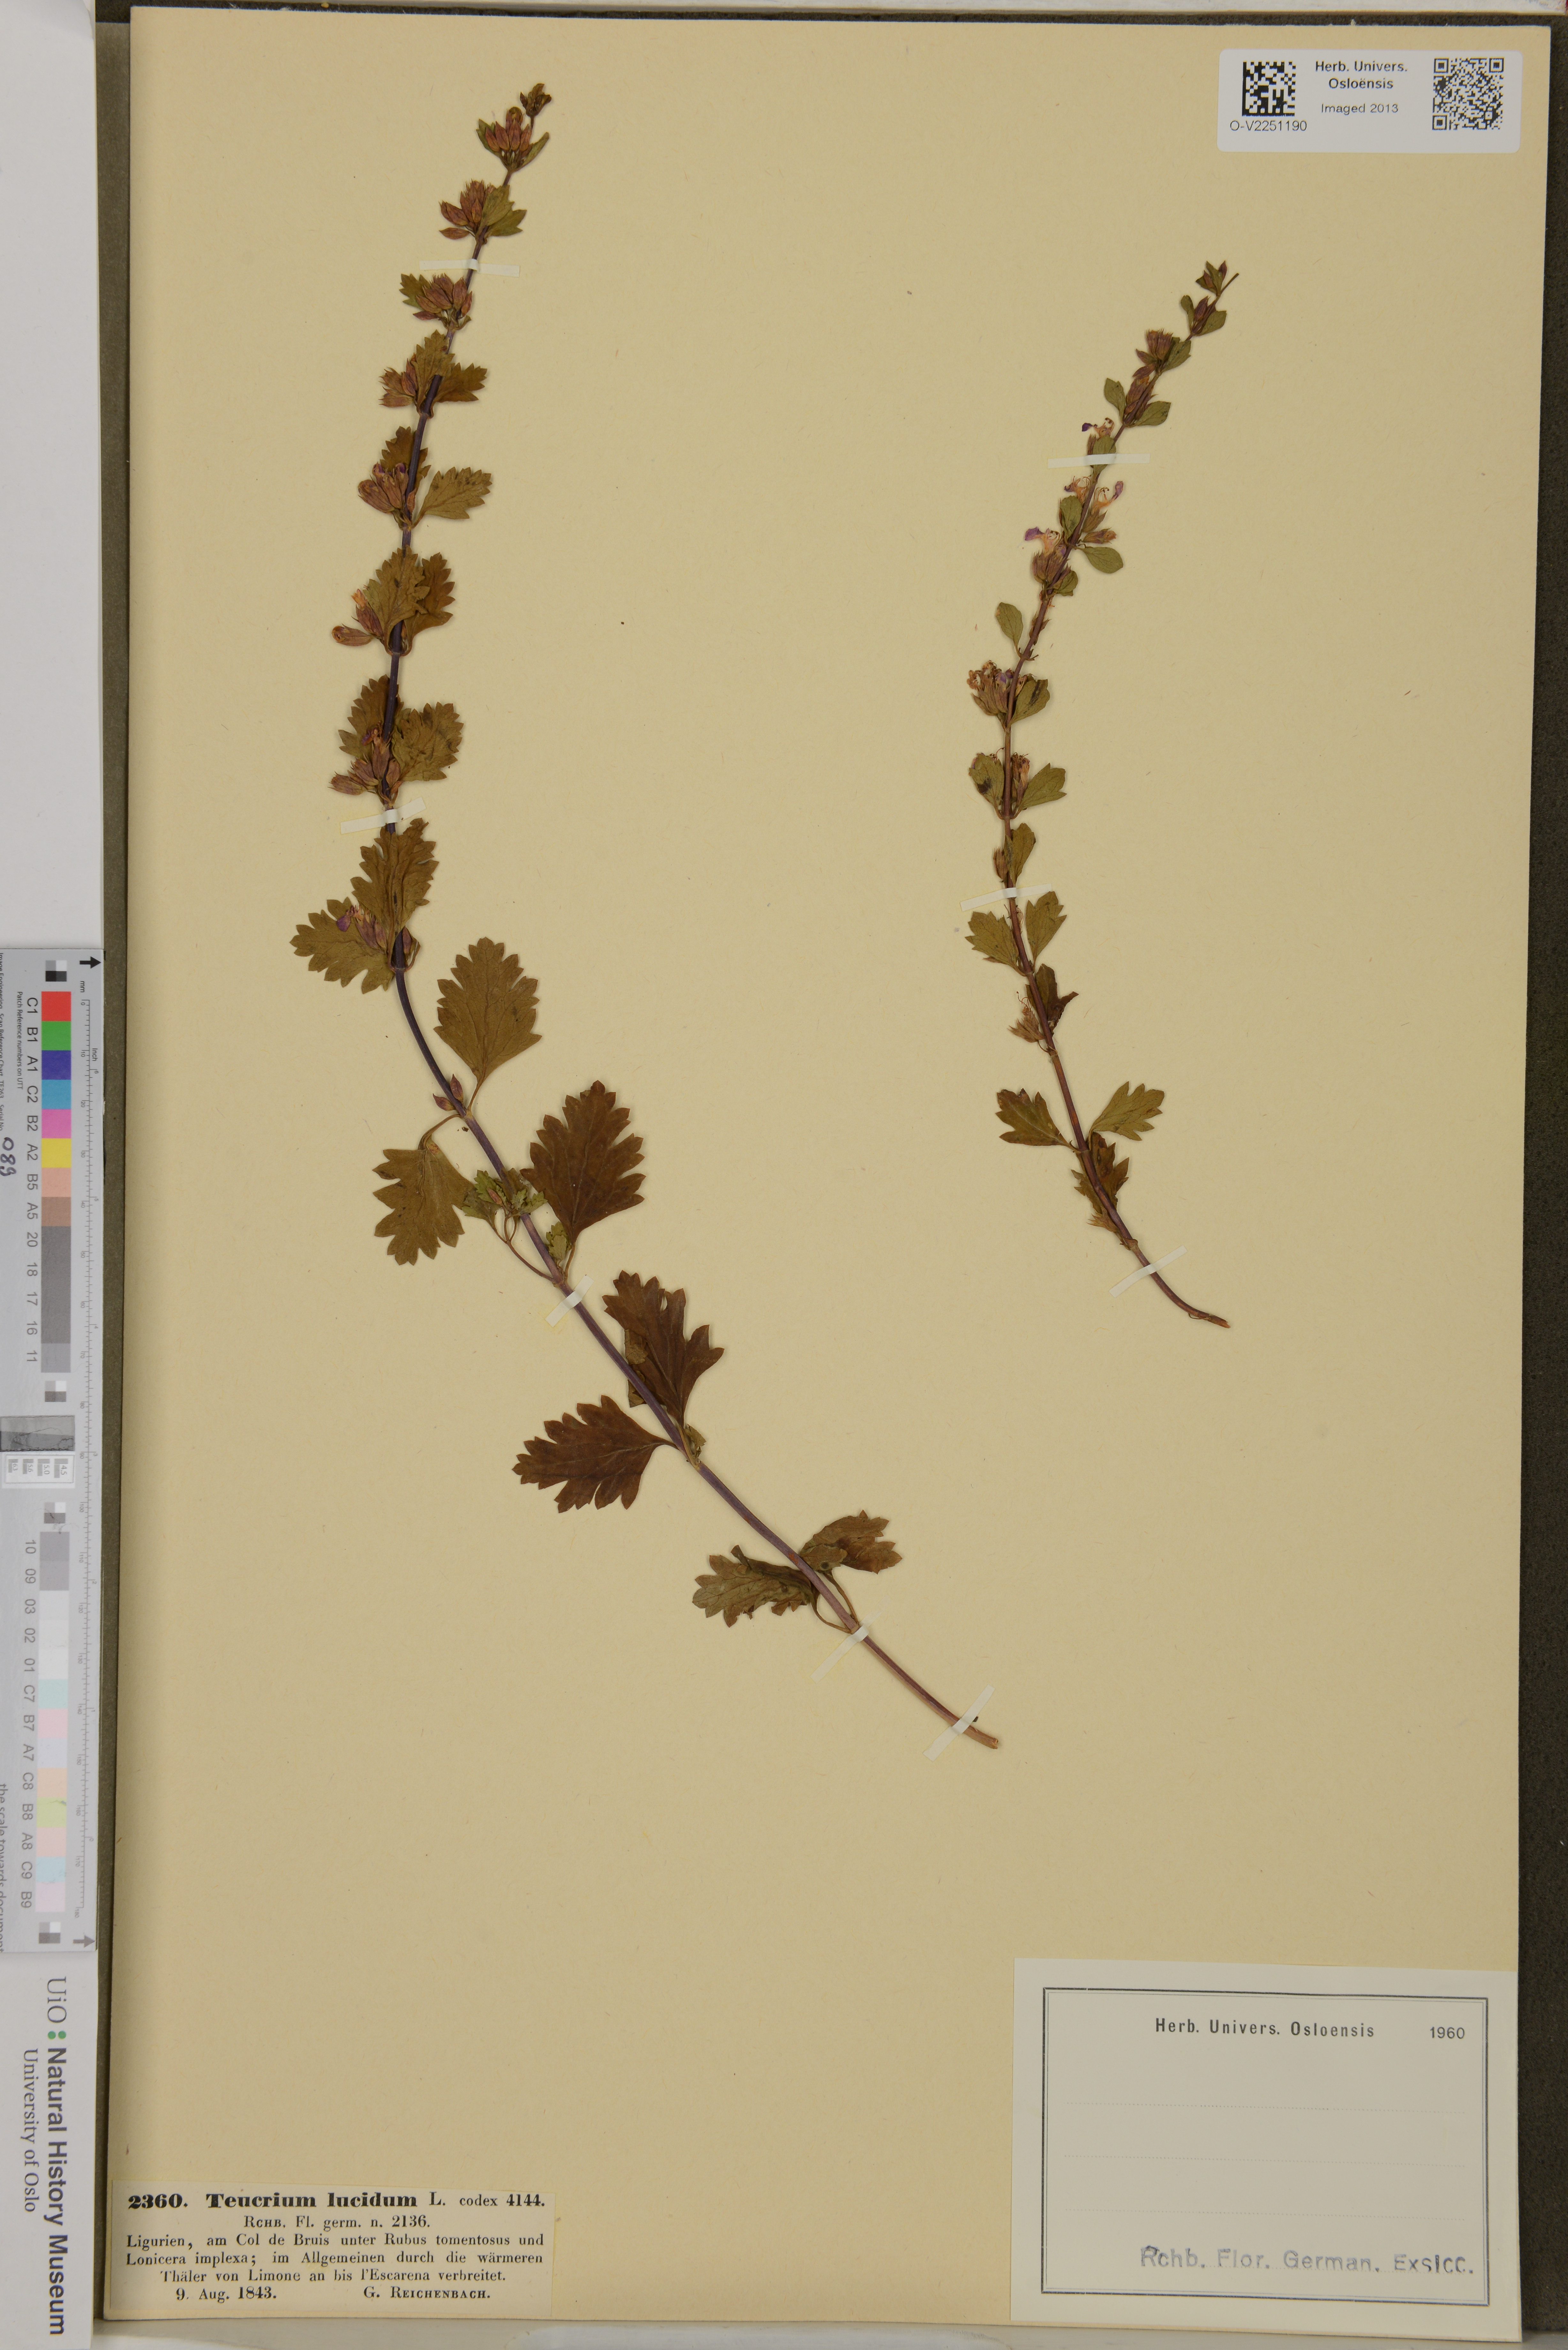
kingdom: Plantae
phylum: Tracheophyta
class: Magnoliopsida
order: Lamiales
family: Lamiaceae
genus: Teucrium
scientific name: Teucrium lucidum
